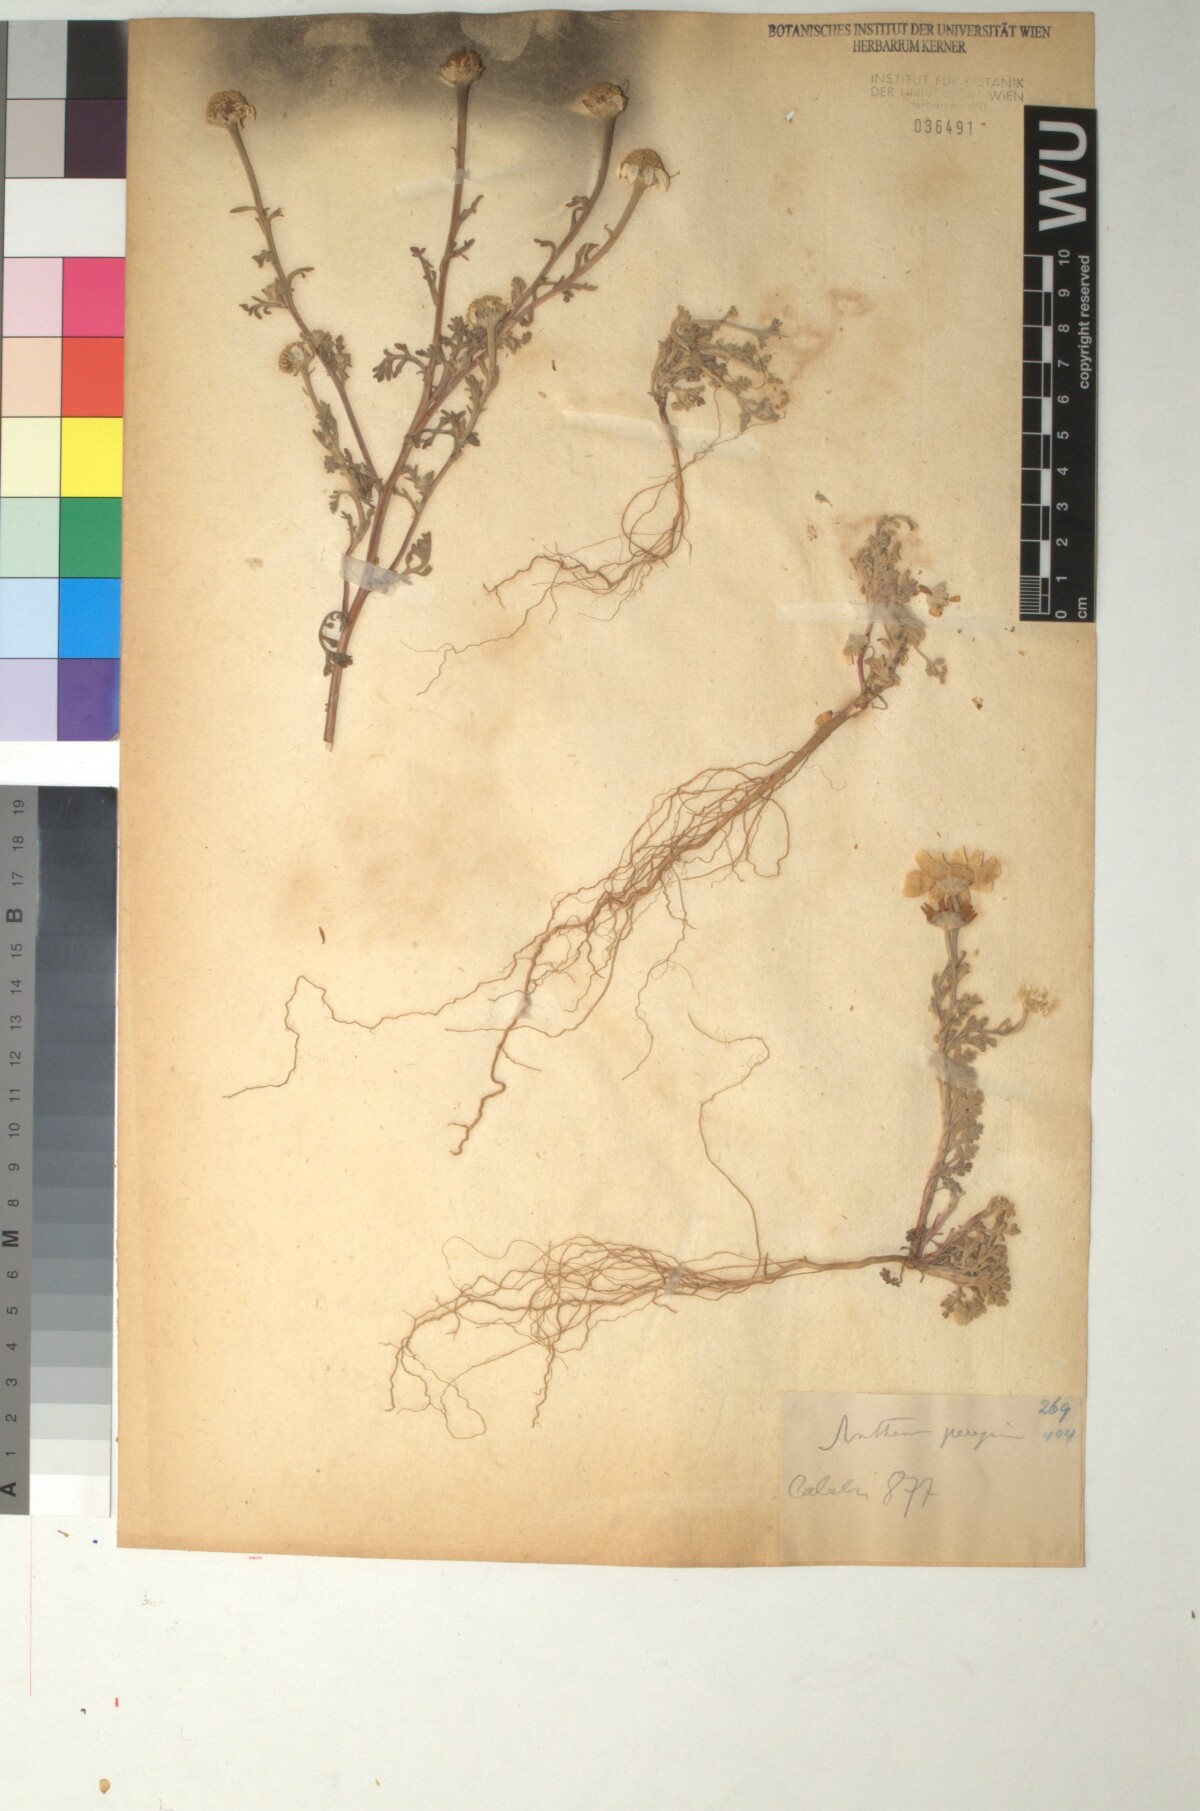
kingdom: Plantae
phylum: Tracheophyta
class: Magnoliopsida
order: Asterales
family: Asteraceae
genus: Anthemis
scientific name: Anthemis tomentosa
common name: Woolly chamomile
